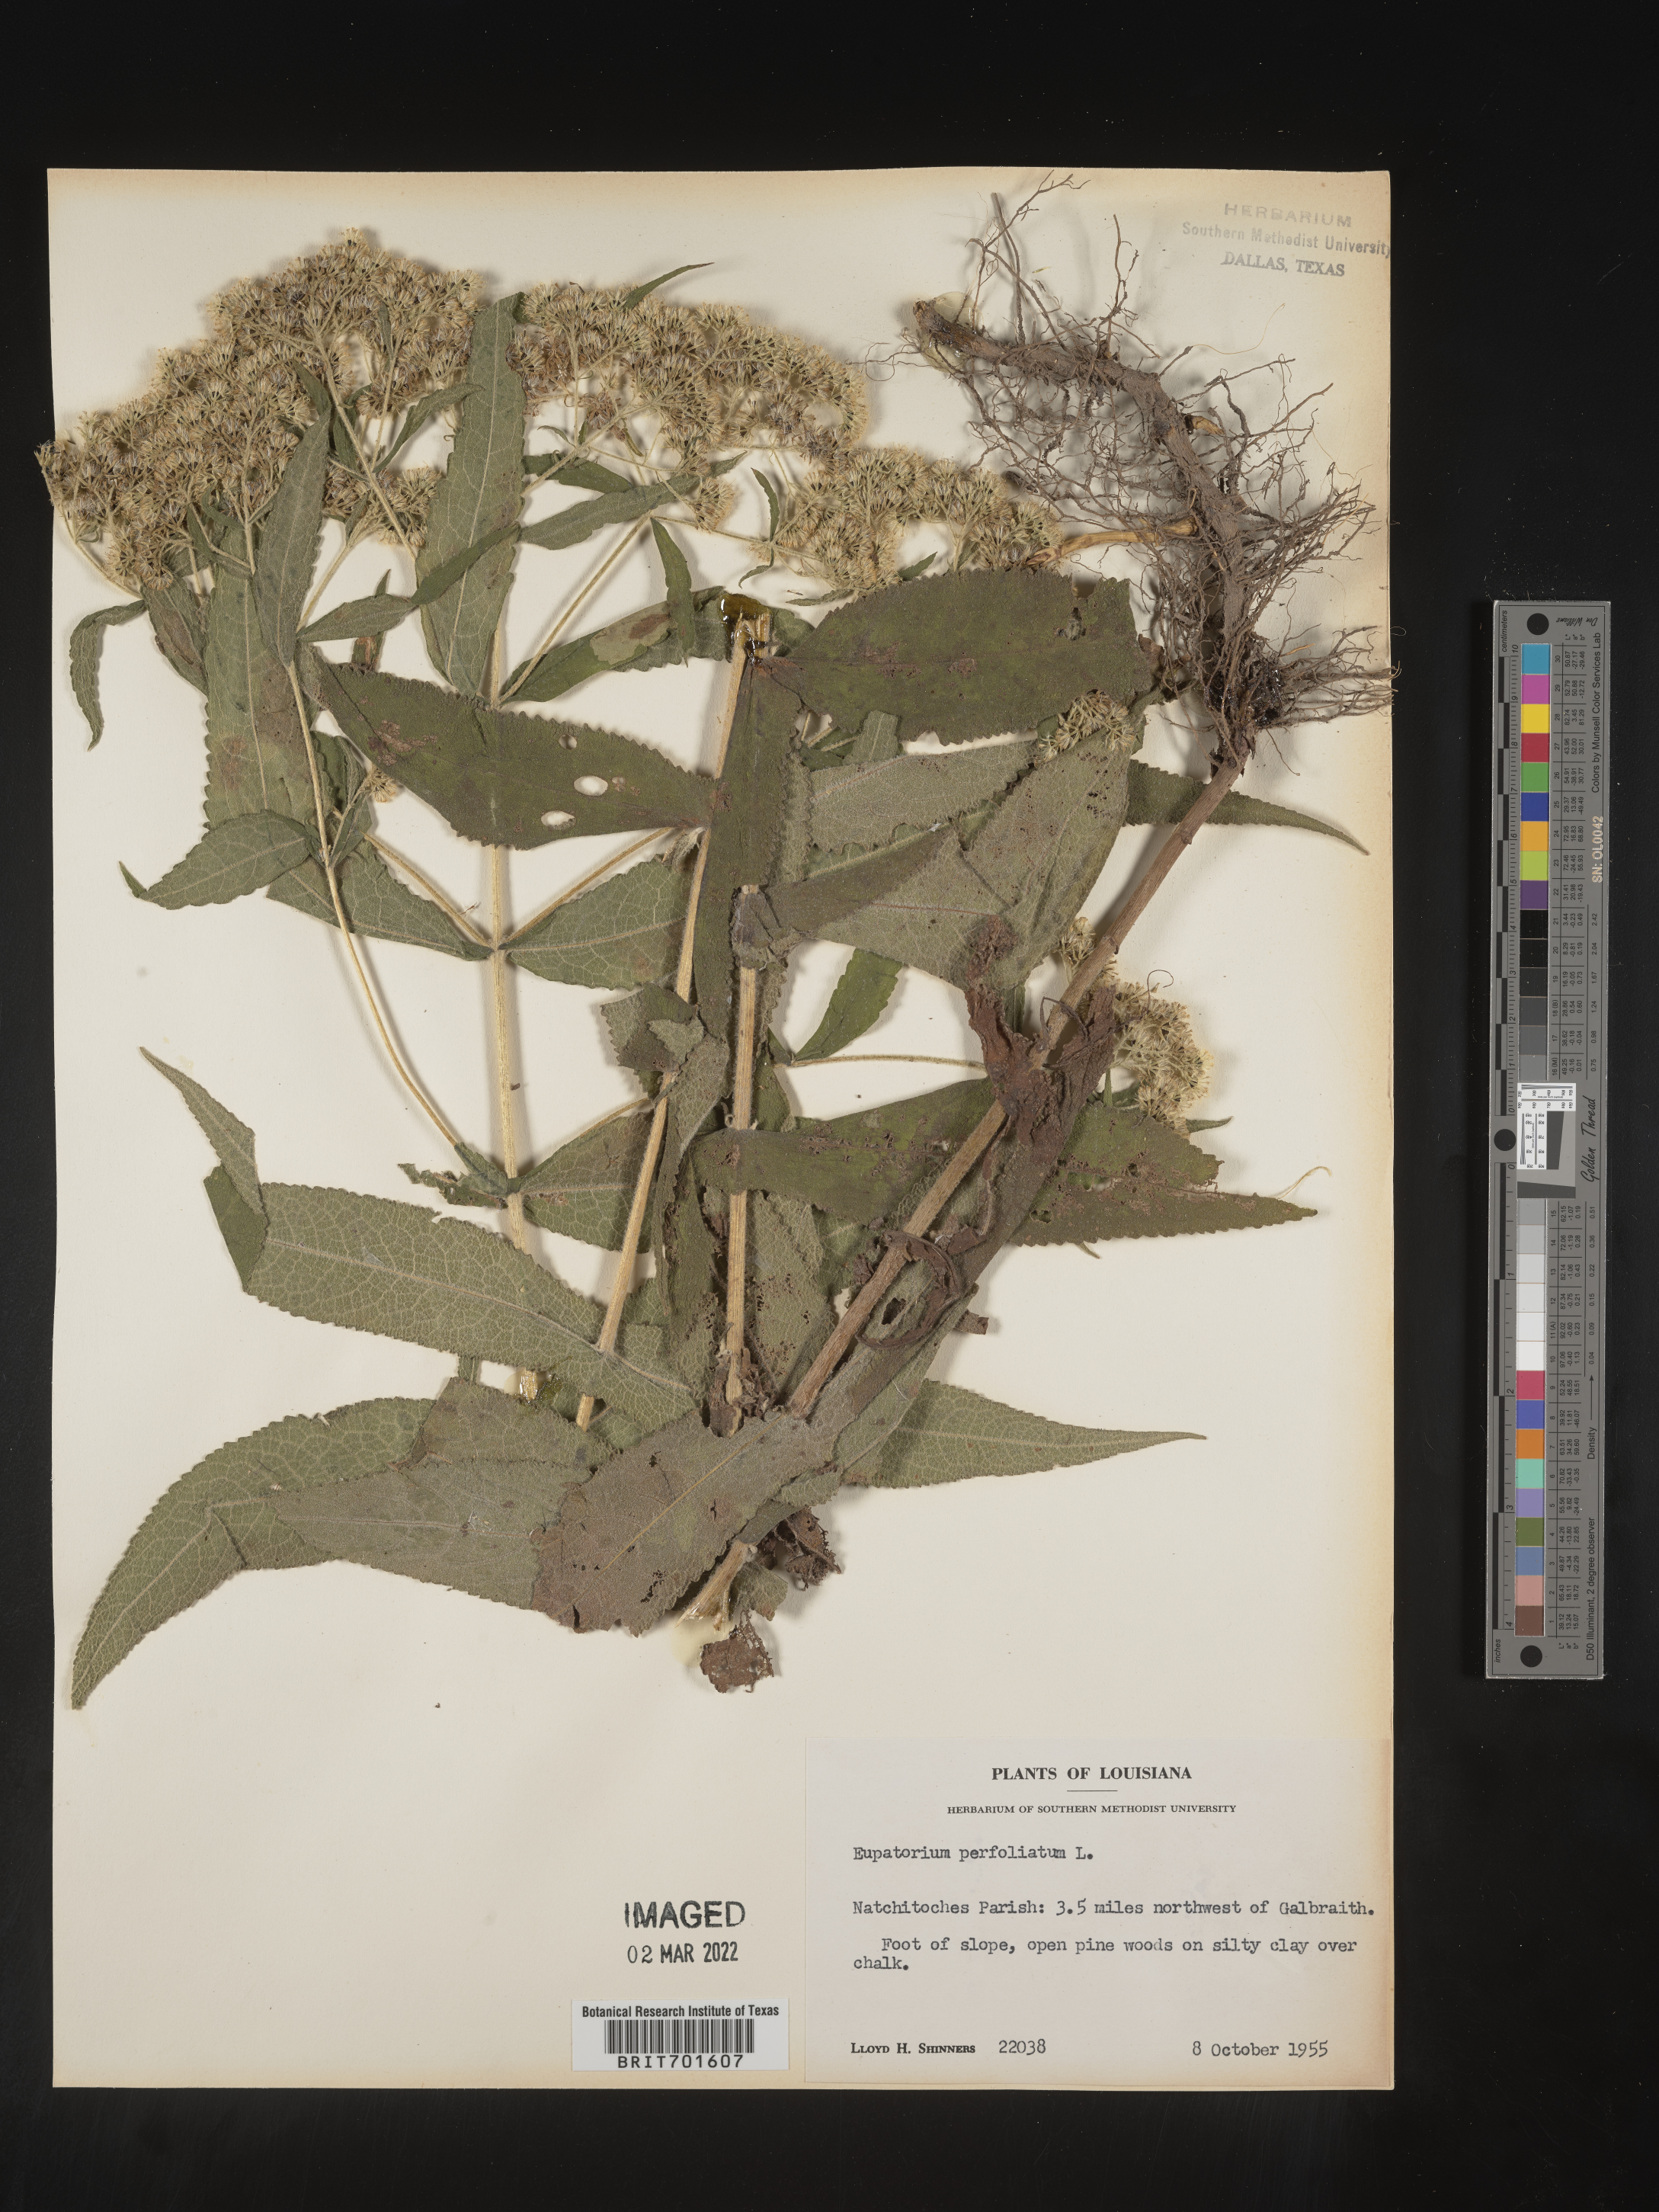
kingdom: Plantae
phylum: Tracheophyta
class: Magnoliopsida
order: Asterales
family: Asteraceae
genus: Eupatorium
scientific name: Eupatorium perfoliatum
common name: Boneset
